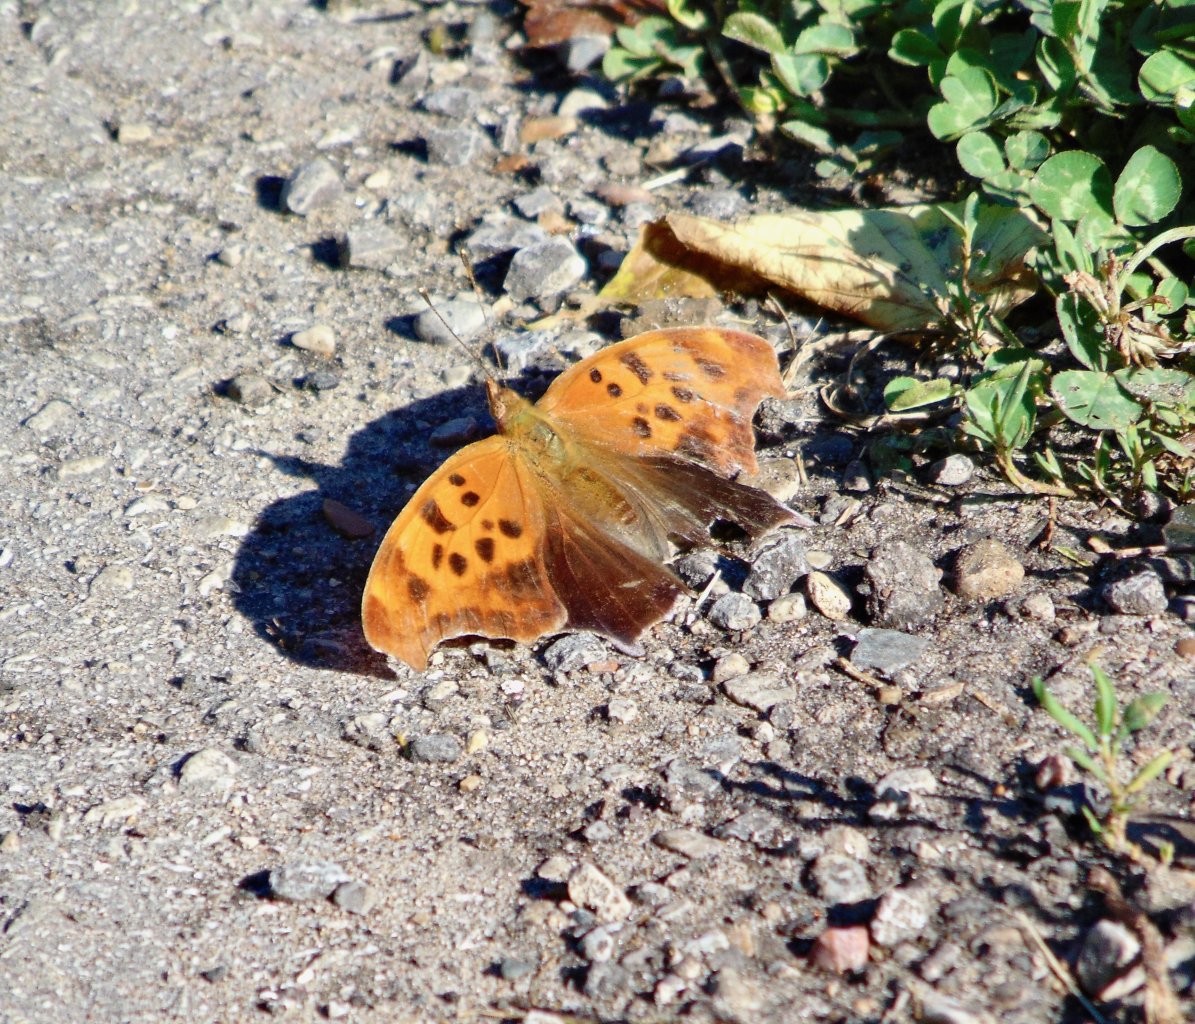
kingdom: Animalia
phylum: Arthropoda
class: Insecta
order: Lepidoptera
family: Nymphalidae
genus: Polygonia
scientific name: Polygonia interrogationis
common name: Question Mark
